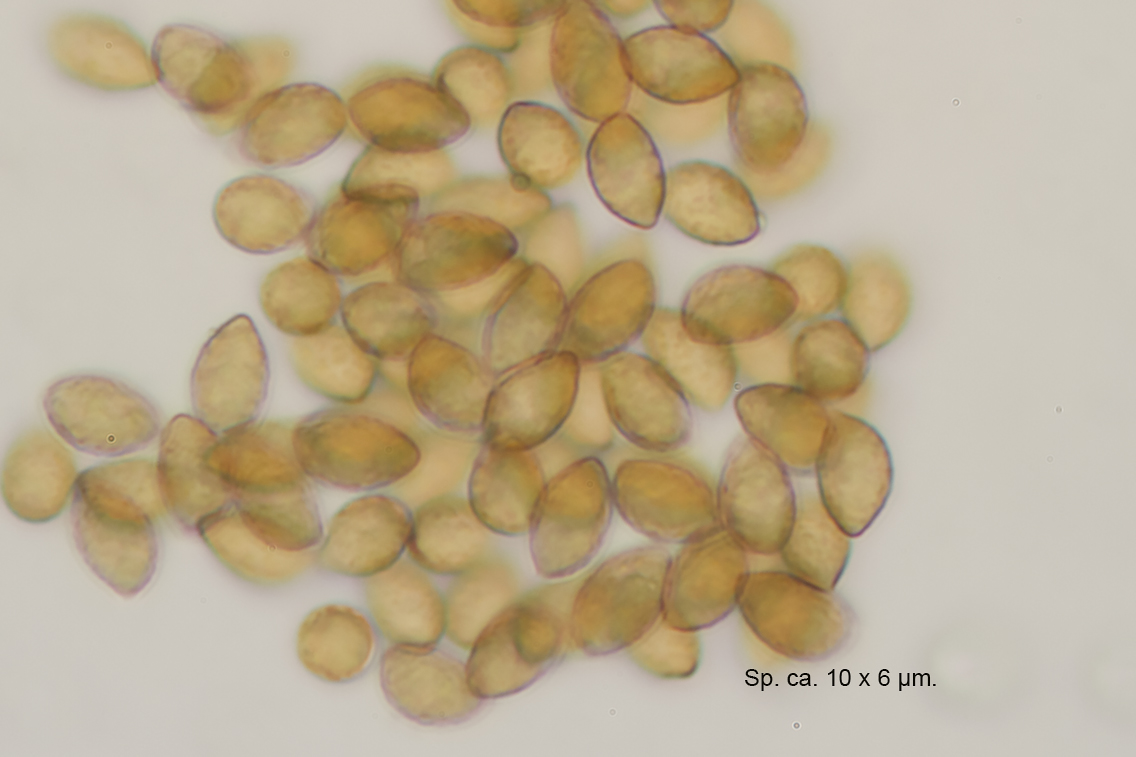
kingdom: Fungi
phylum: Basidiomycota
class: Agaricomycetes
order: Agaricales
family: Cortinariaceae
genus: Calonarius
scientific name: Calonarius platypus
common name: platfodet slørhat
